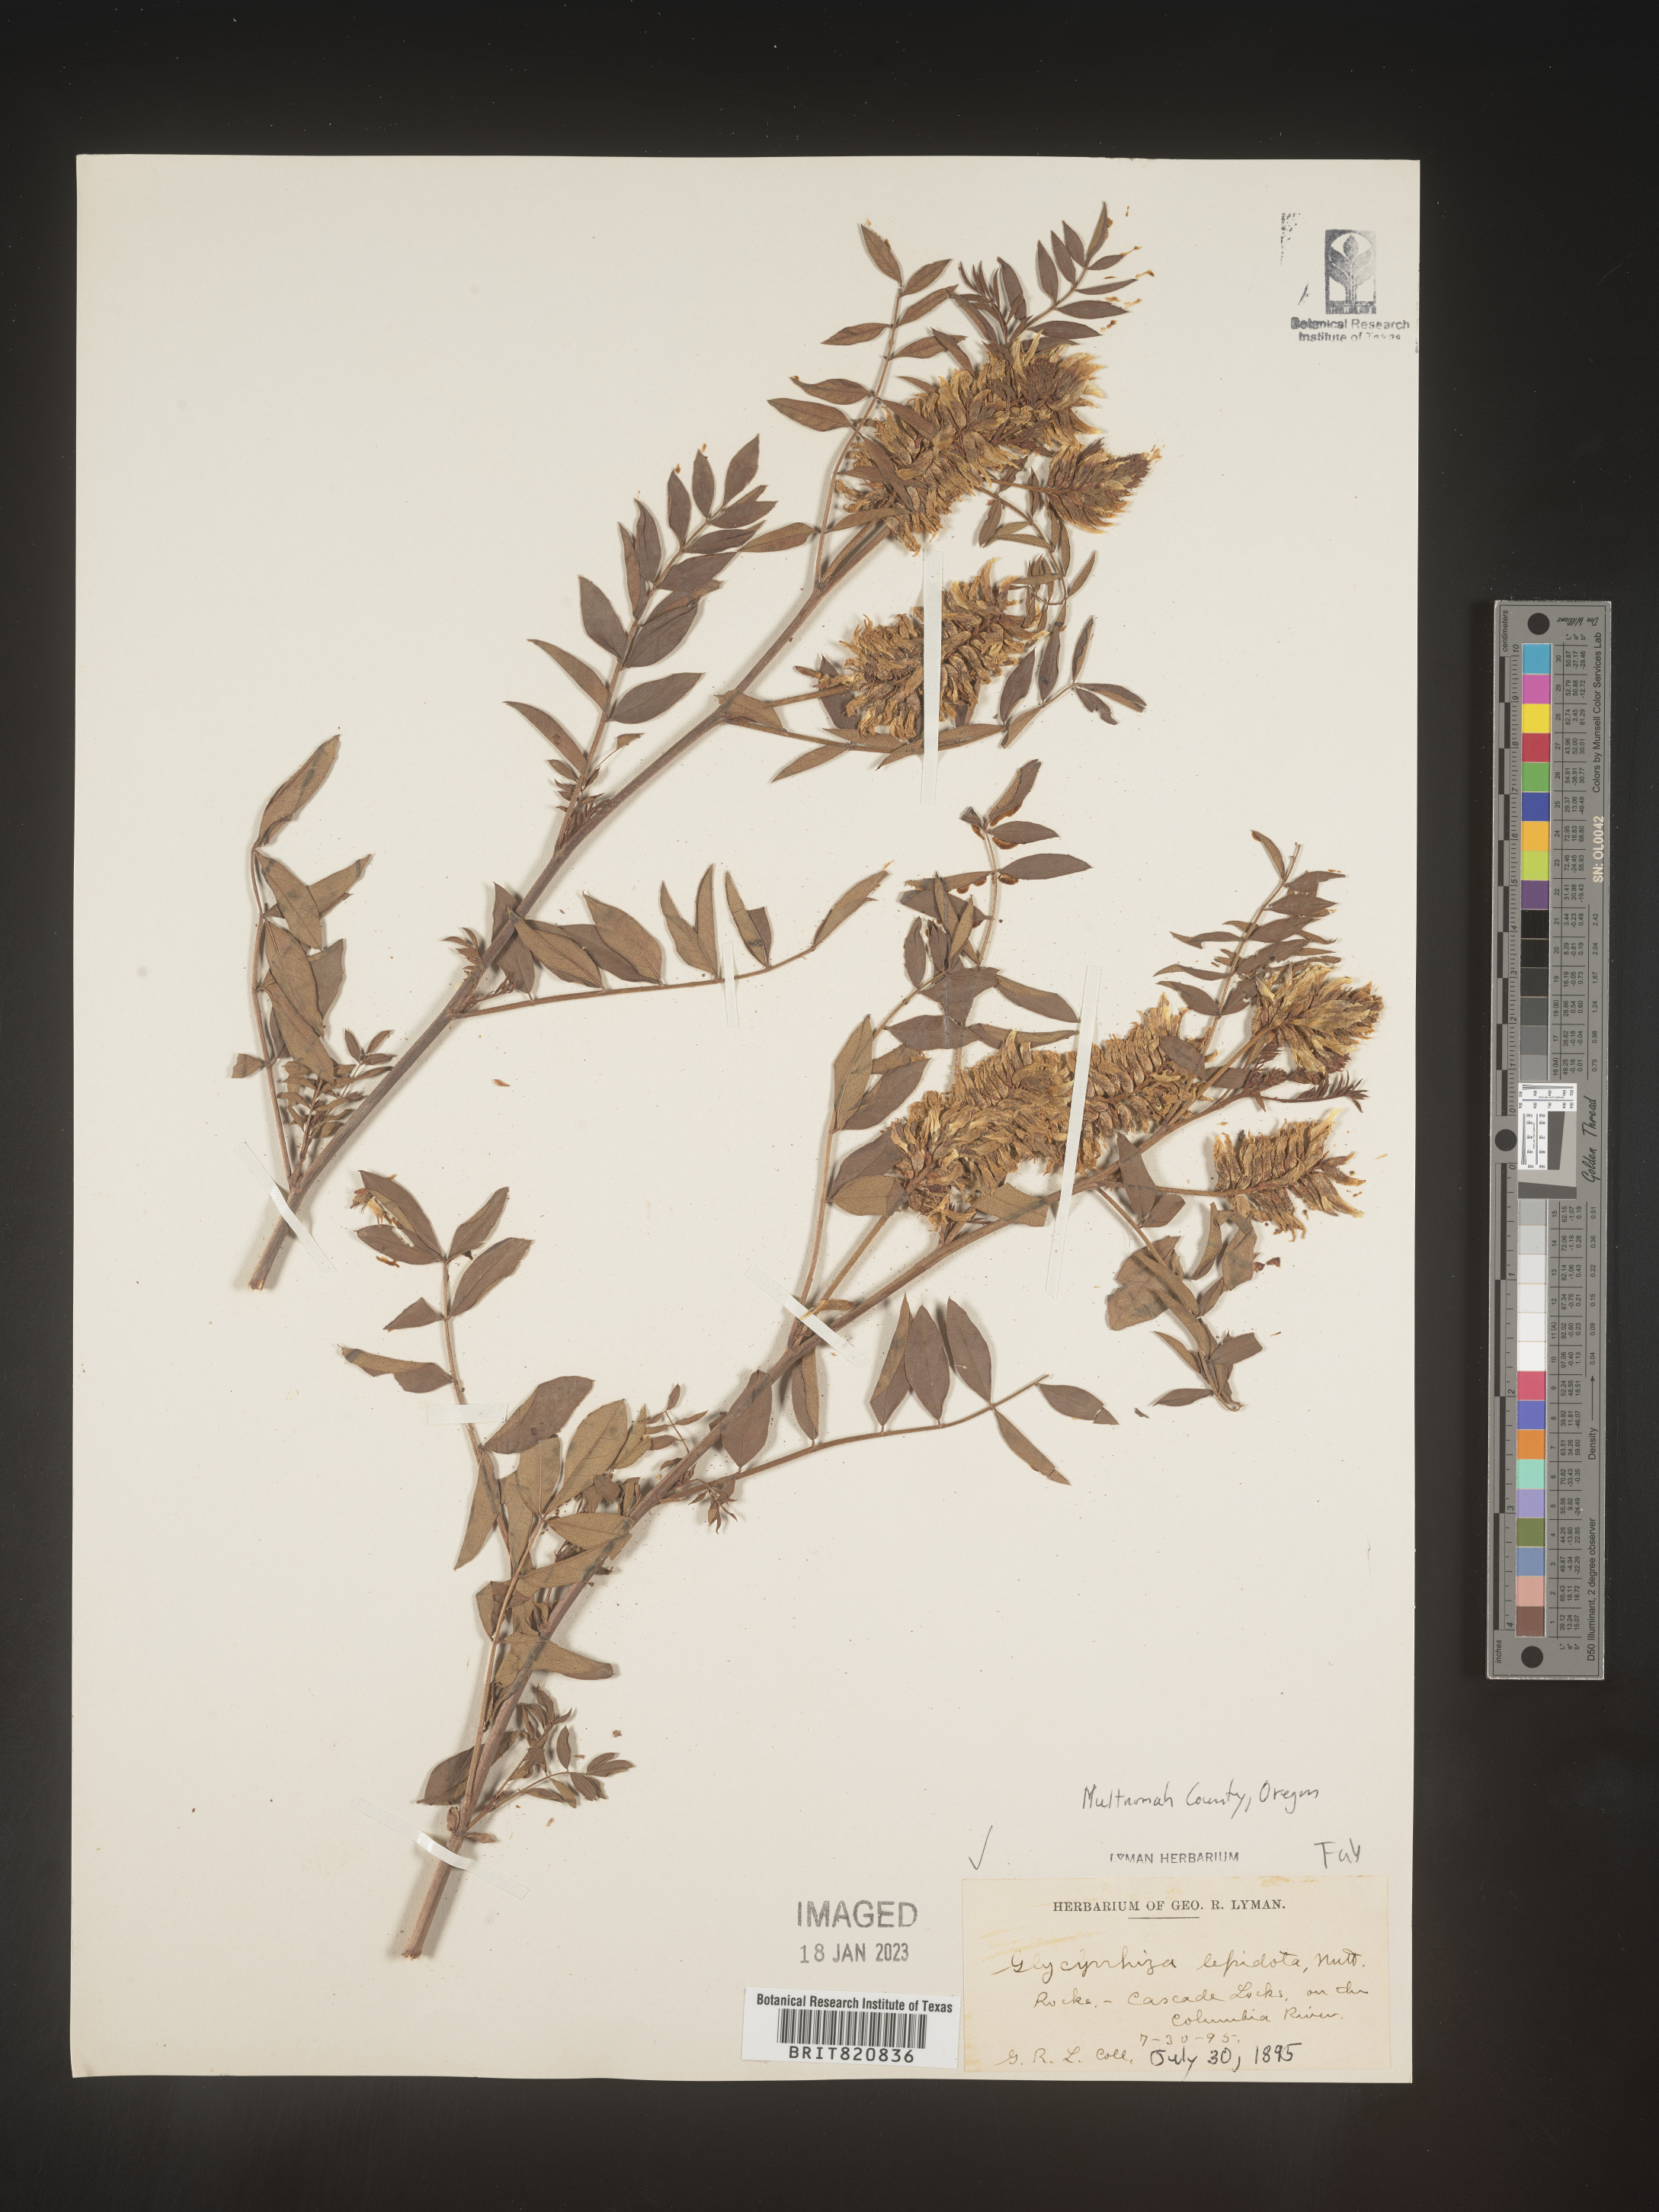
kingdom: Plantae
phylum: Tracheophyta
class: Magnoliopsida
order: Fabales
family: Fabaceae
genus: Glycyrrhiza
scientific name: Glycyrrhiza lepidota
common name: American liquorice
